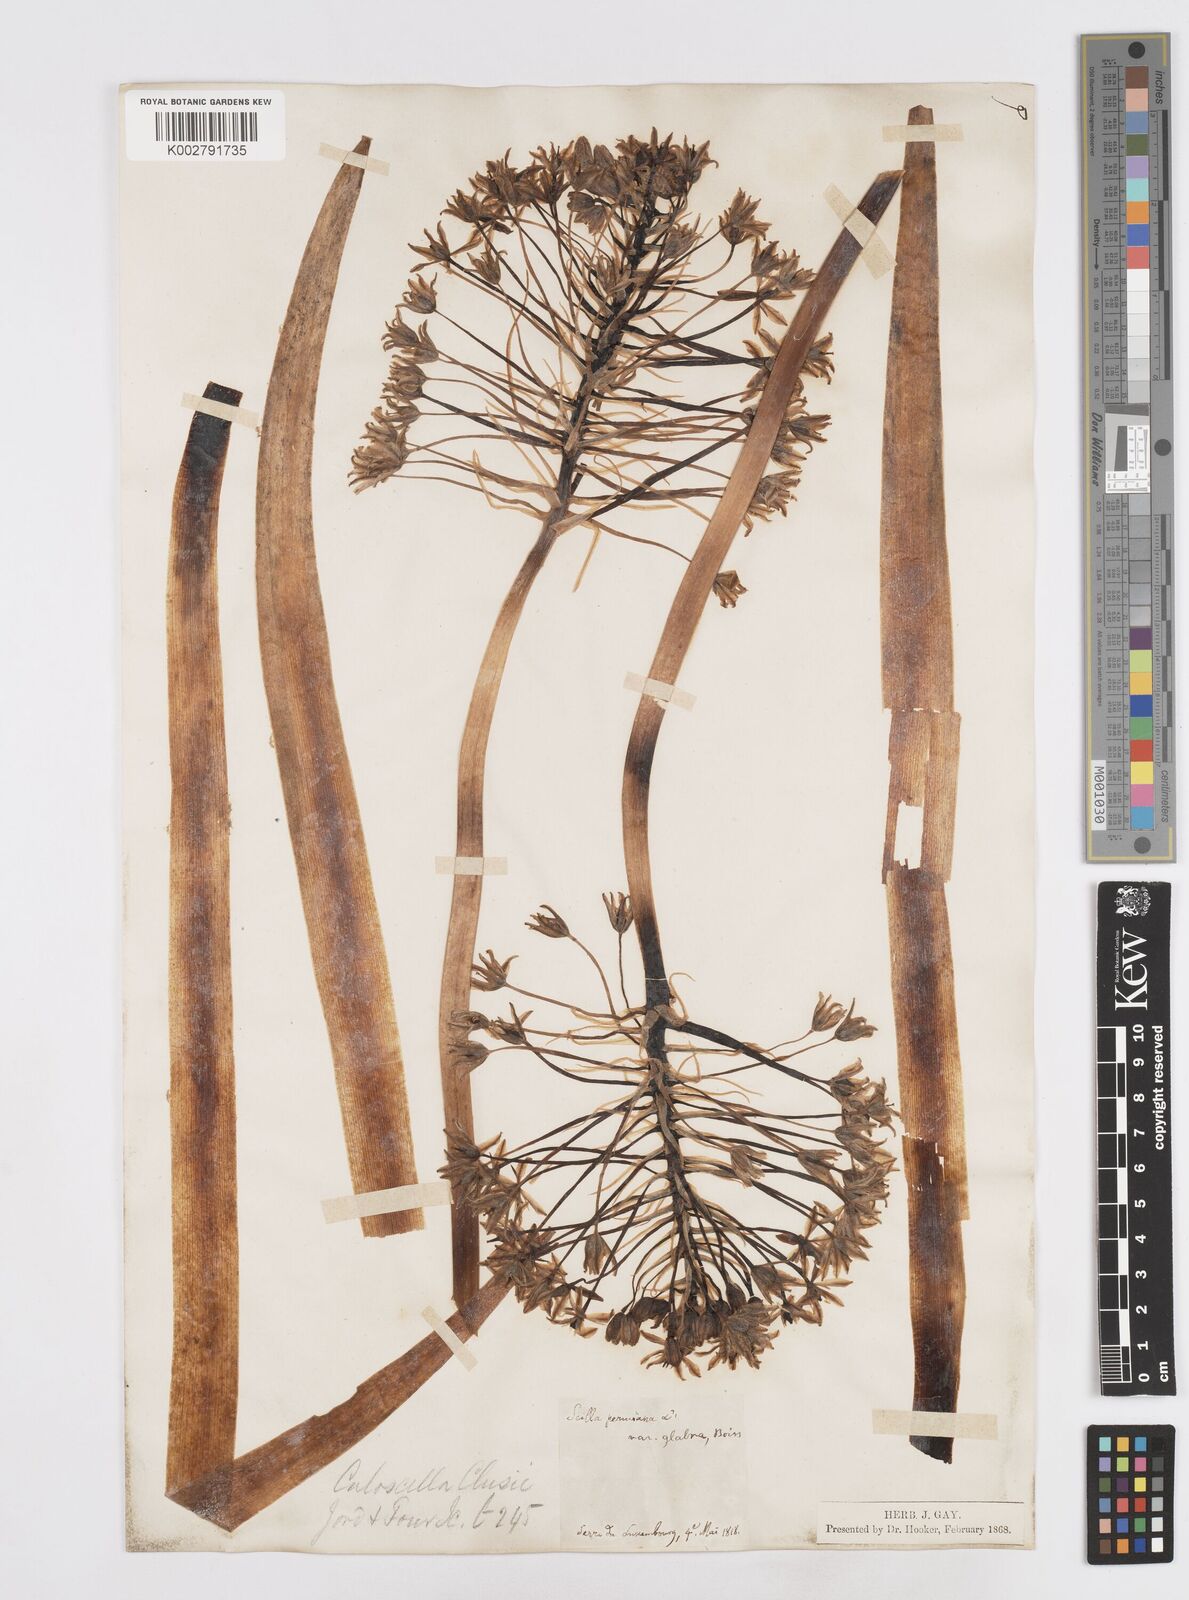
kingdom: Plantae
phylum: Tracheophyta
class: Liliopsida
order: Asparagales
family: Asparagaceae
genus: Scilla
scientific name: Scilla peruviana
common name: Portuguese squill
